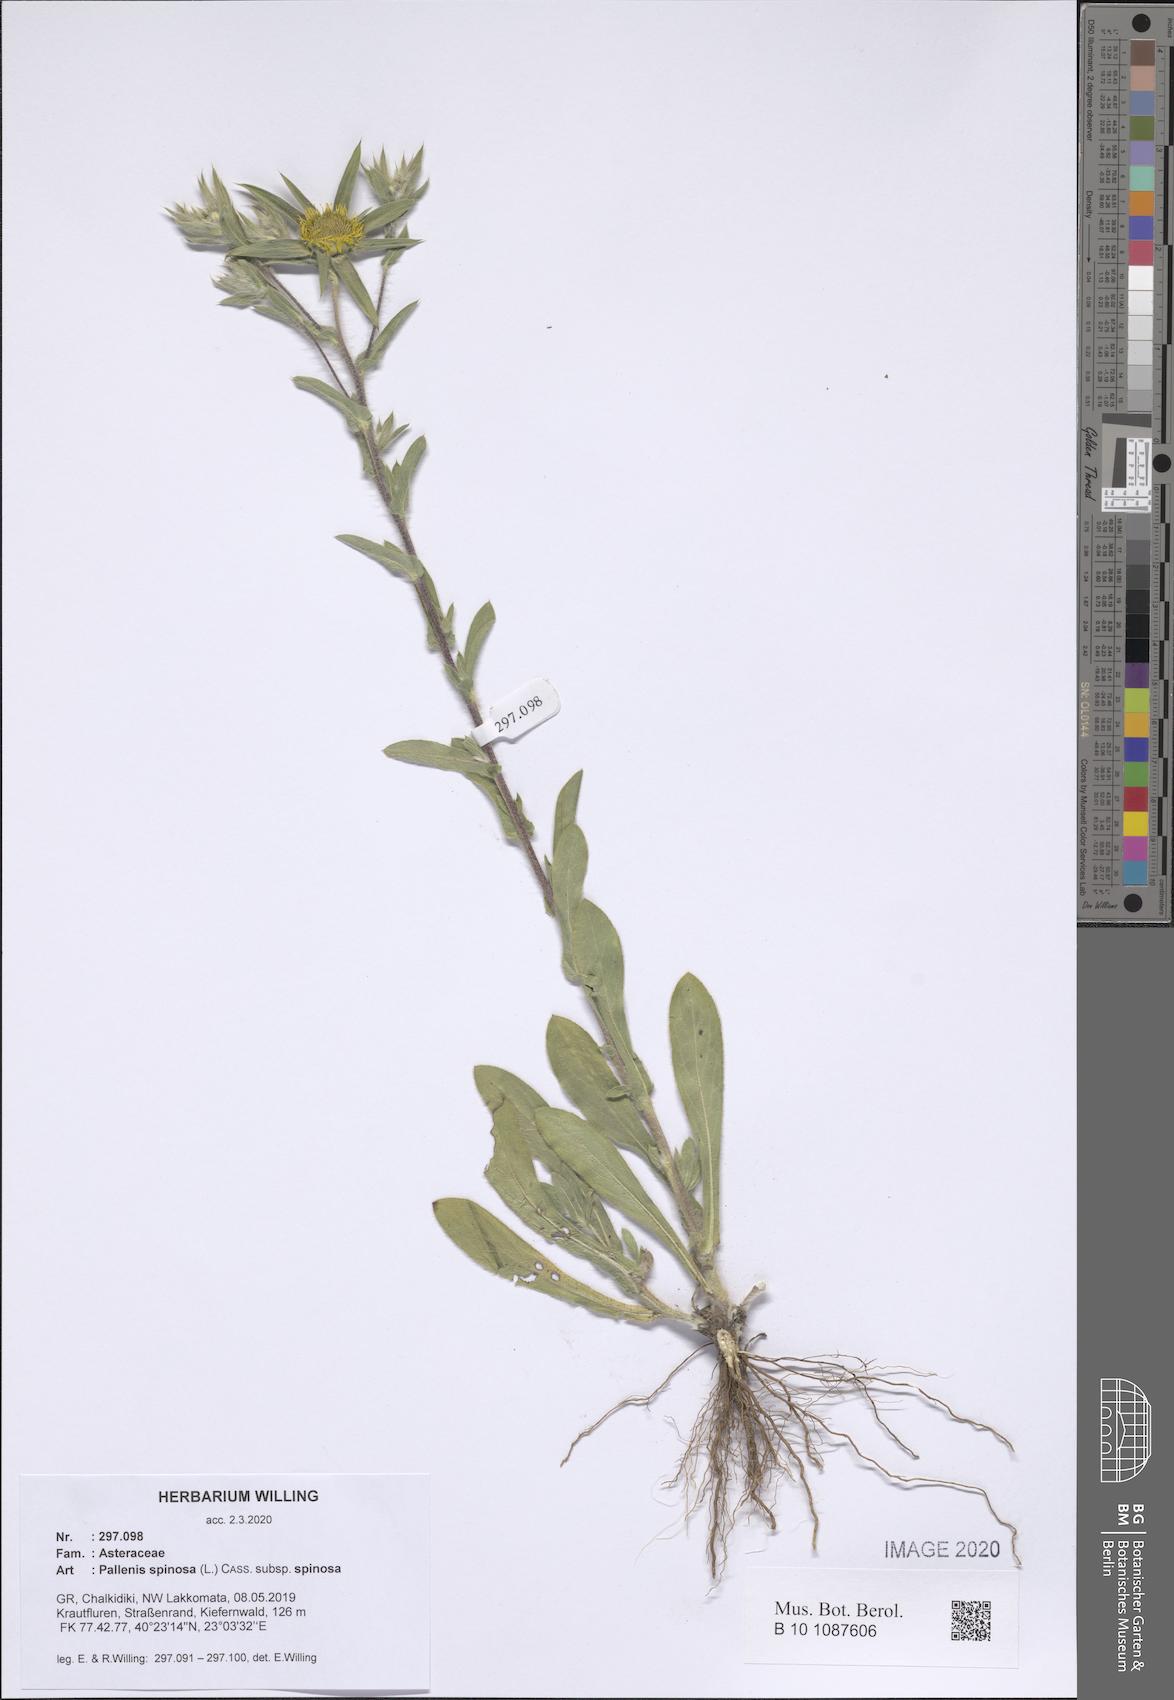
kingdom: Plantae
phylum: Tracheophyta
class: Magnoliopsida
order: Asterales
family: Asteraceae
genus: Pallenis
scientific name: Pallenis spinosa
